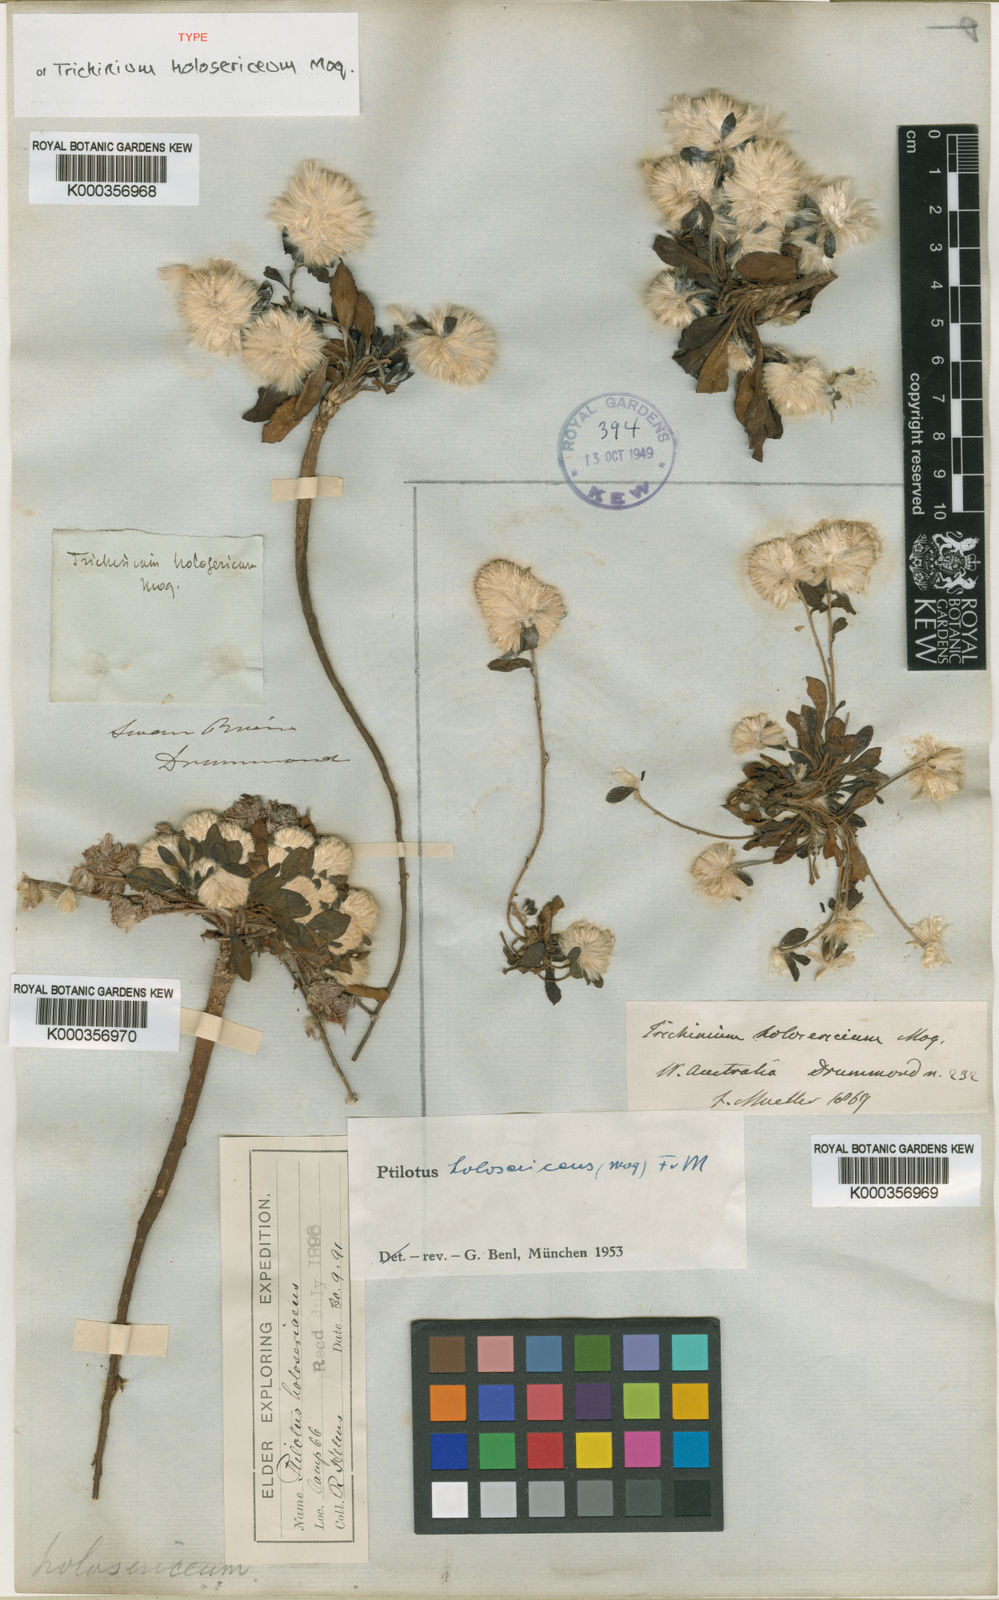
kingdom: Plantae
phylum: Tracheophyta
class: Magnoliopsida
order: Caryophyllales
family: Amaranthaceae
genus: Ptilotus
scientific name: Ptilotus holosericeus
